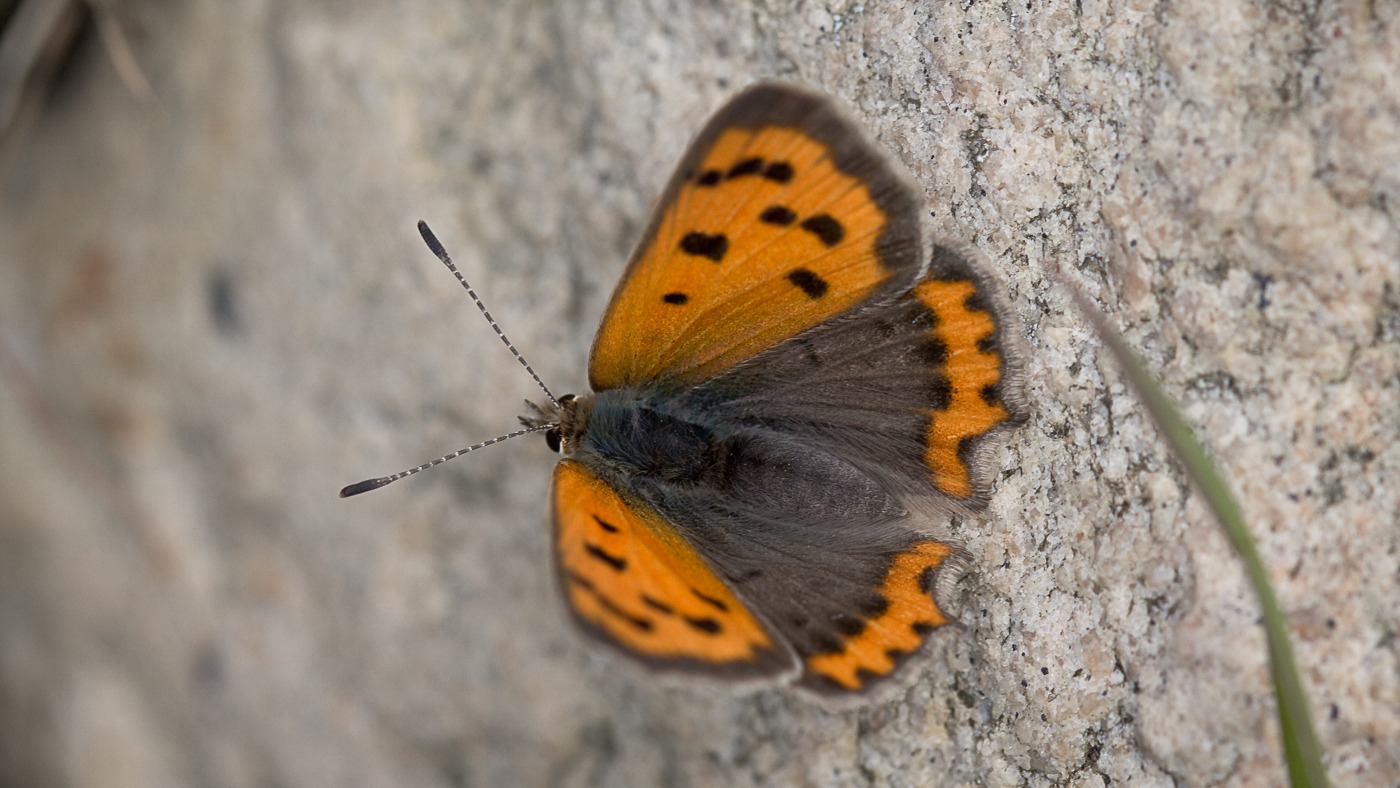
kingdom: Animalia
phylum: Arthropoda
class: Insecta
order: Lepidoptera
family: Lycaenidae
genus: Lycaena
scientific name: Lycaena phlaeas
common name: Lille ildfugl
